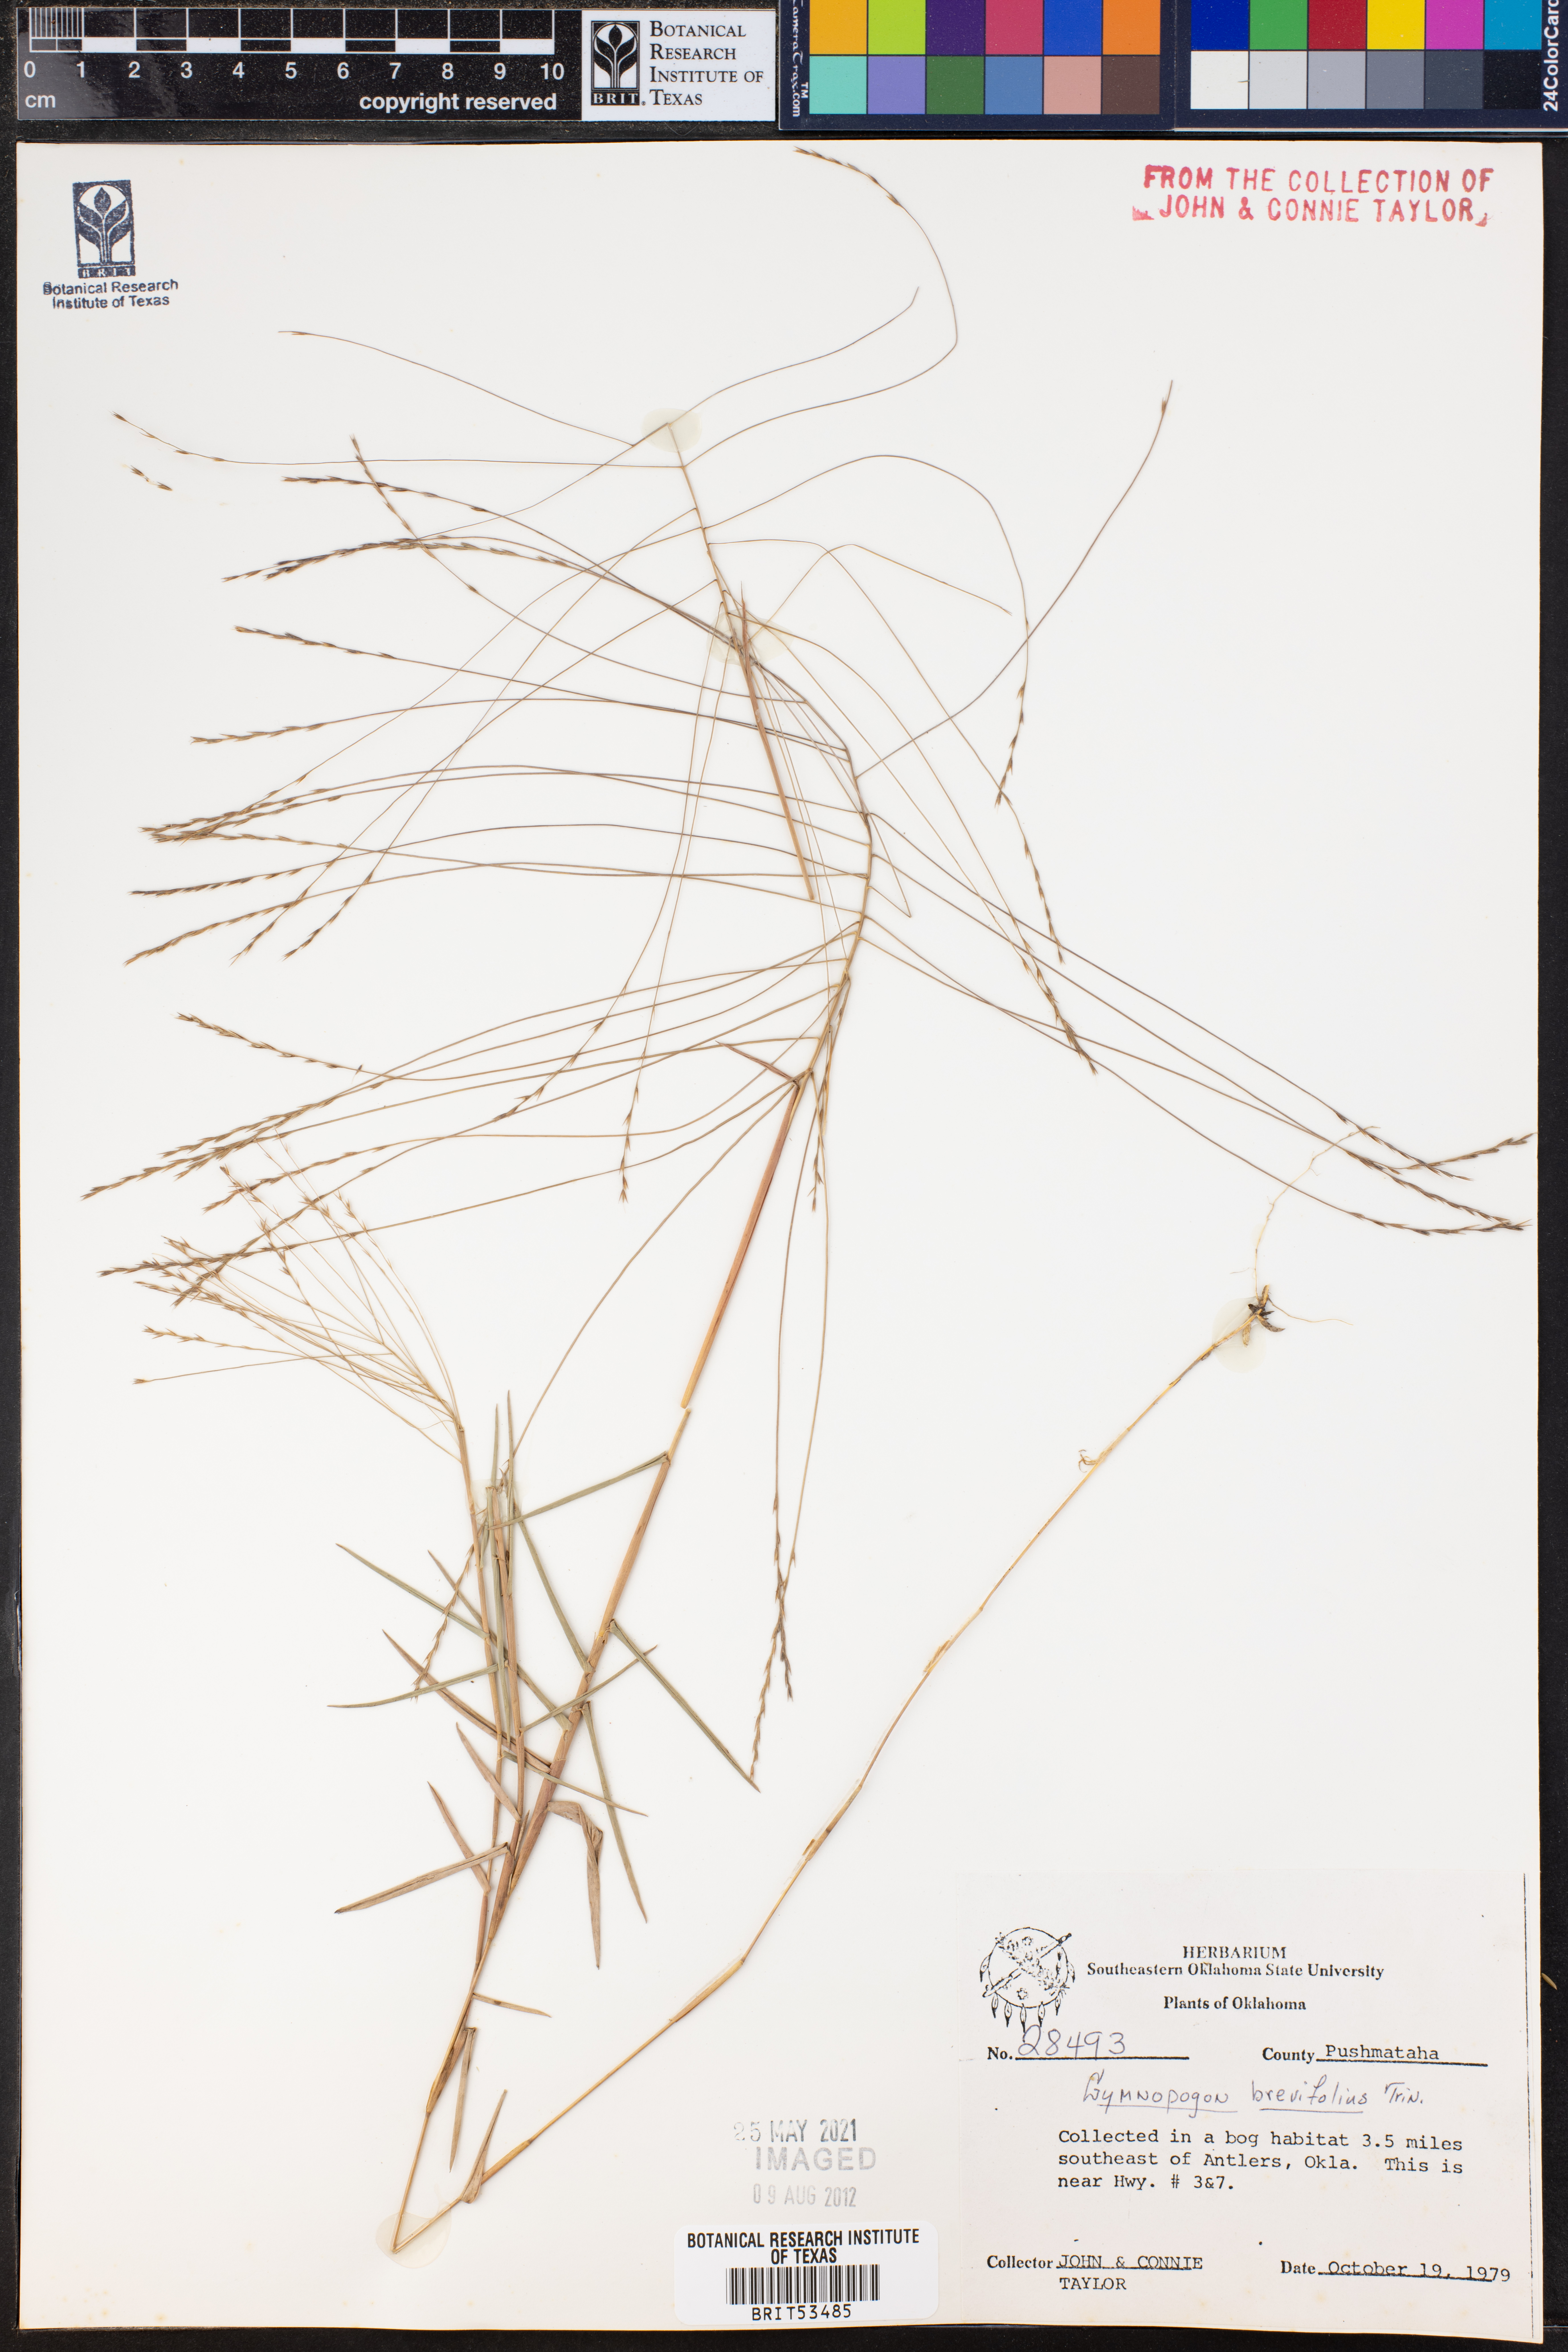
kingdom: Plantae
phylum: Tracheophyta
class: Liliopsida
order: Poales
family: Poaceae
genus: Gymnopogon
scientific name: Gymnopogon brevifolius
